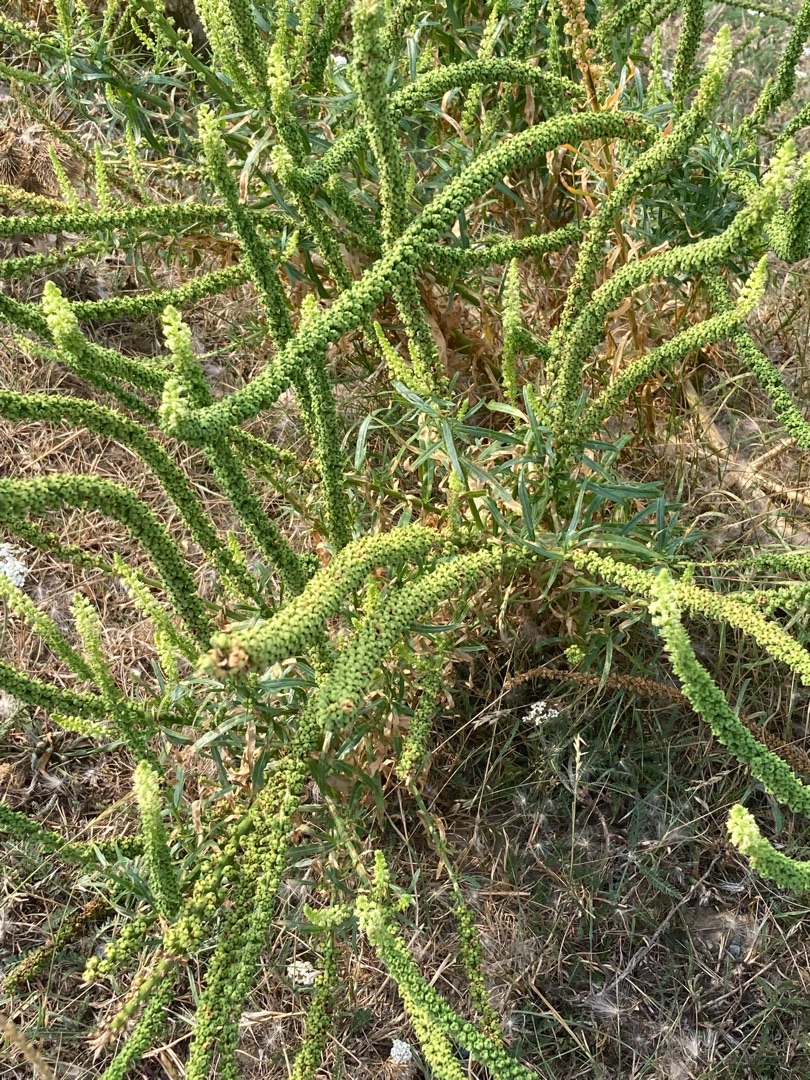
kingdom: Plantae
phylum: Tracheophyta
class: Magnoliopsida
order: Brassicales
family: Resedaceae
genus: Reseda
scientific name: Reseda luteola
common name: Farve-reseda
